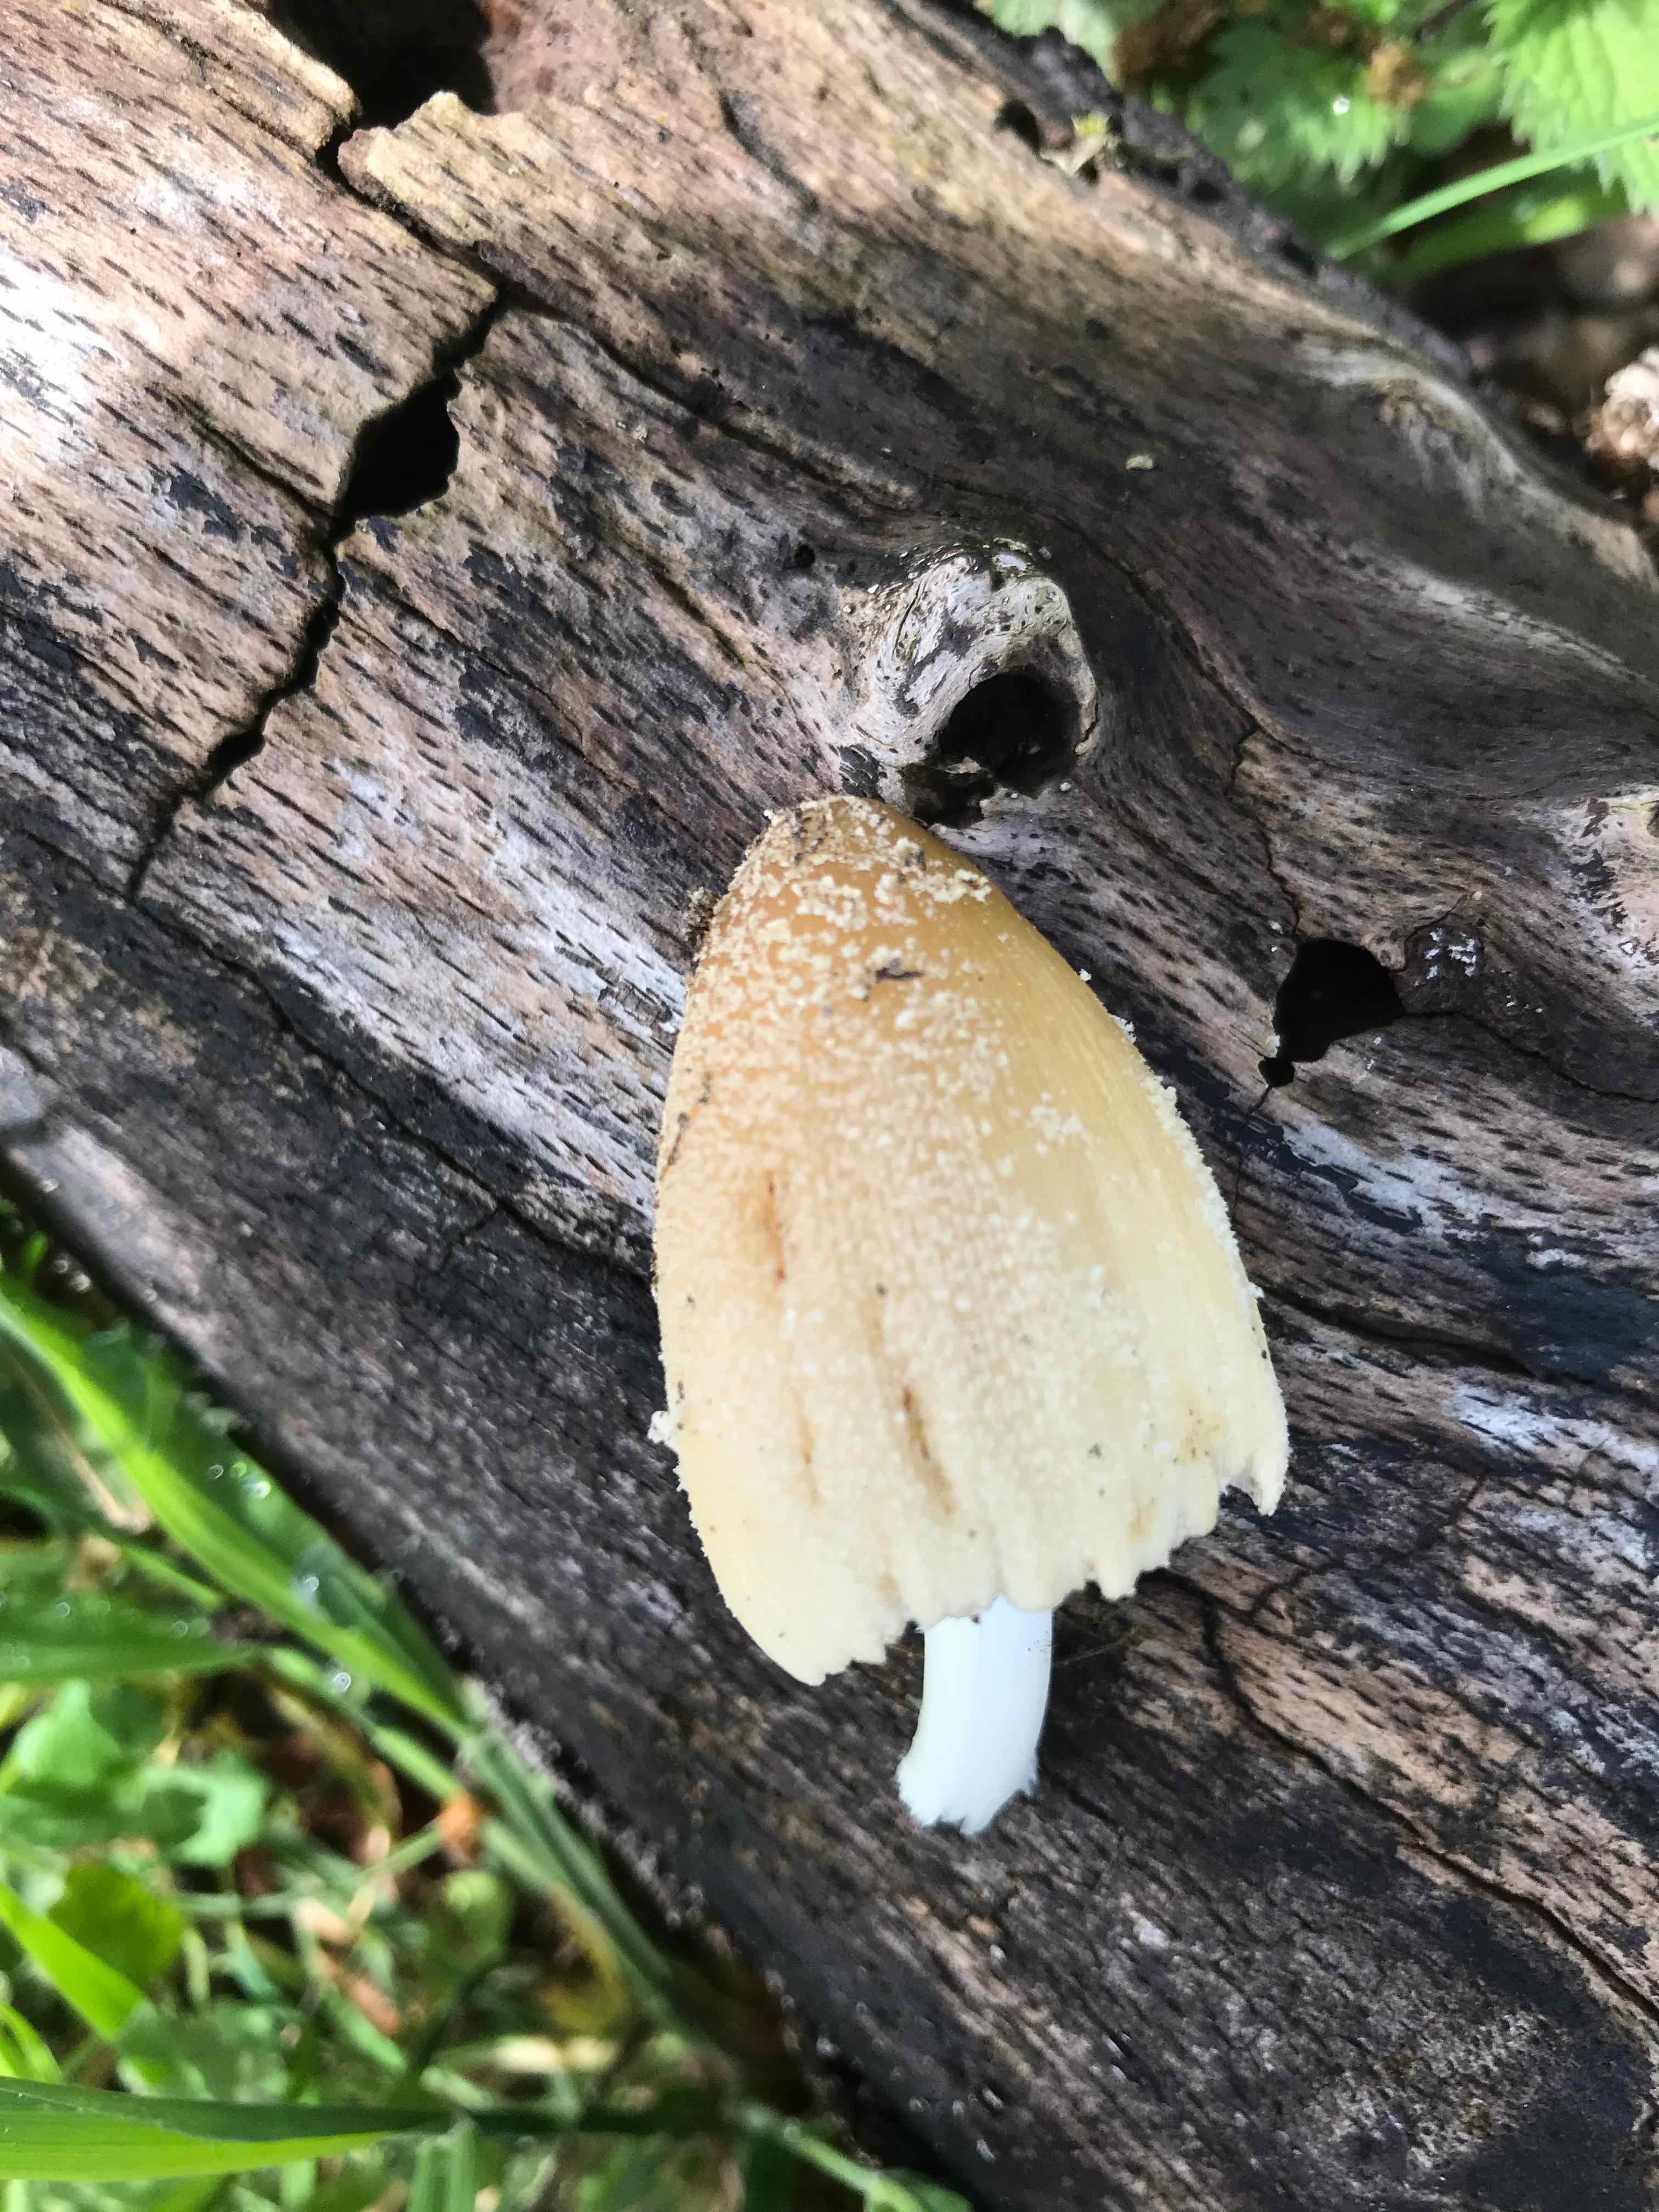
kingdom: Fungi
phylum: Basidiomycota
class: Agaricomycetes
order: Agaricales
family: Psathyrellaceae
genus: Coprinellus
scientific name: Coprinellus
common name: blækhat
